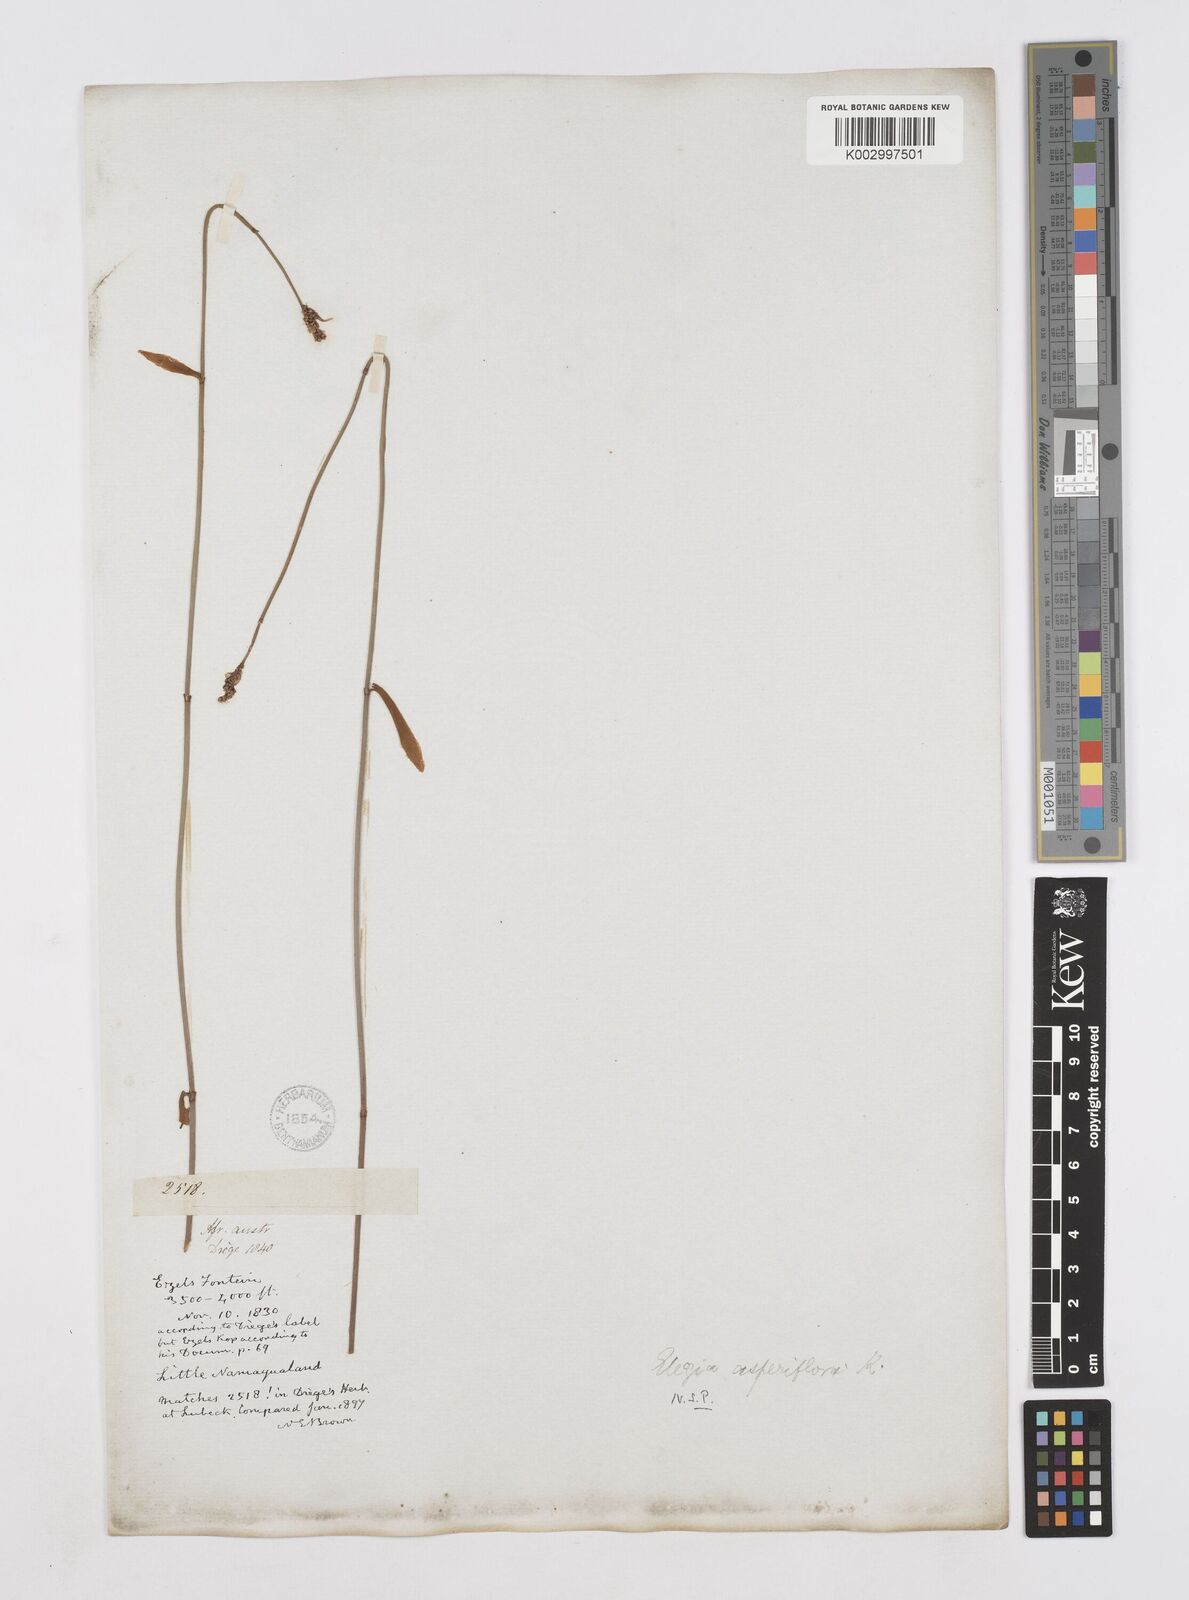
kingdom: Plantae
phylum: Tracheophyta
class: Liliopsida
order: Poales
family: Restionaceae
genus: Elegia
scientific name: Elegia asperiflora
